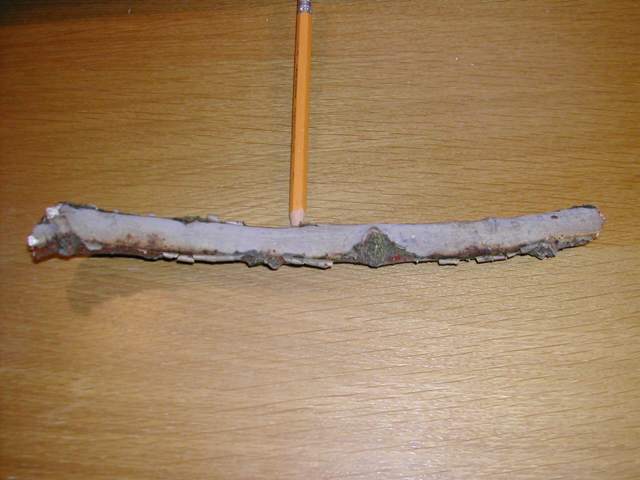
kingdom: Fungi
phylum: Basidiomycota
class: Agaricomycetes
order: Corticiales
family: Vuilleminiaceae
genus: Vuilleminia
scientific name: Vuilleminia comedens
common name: almindelig barksprænger
